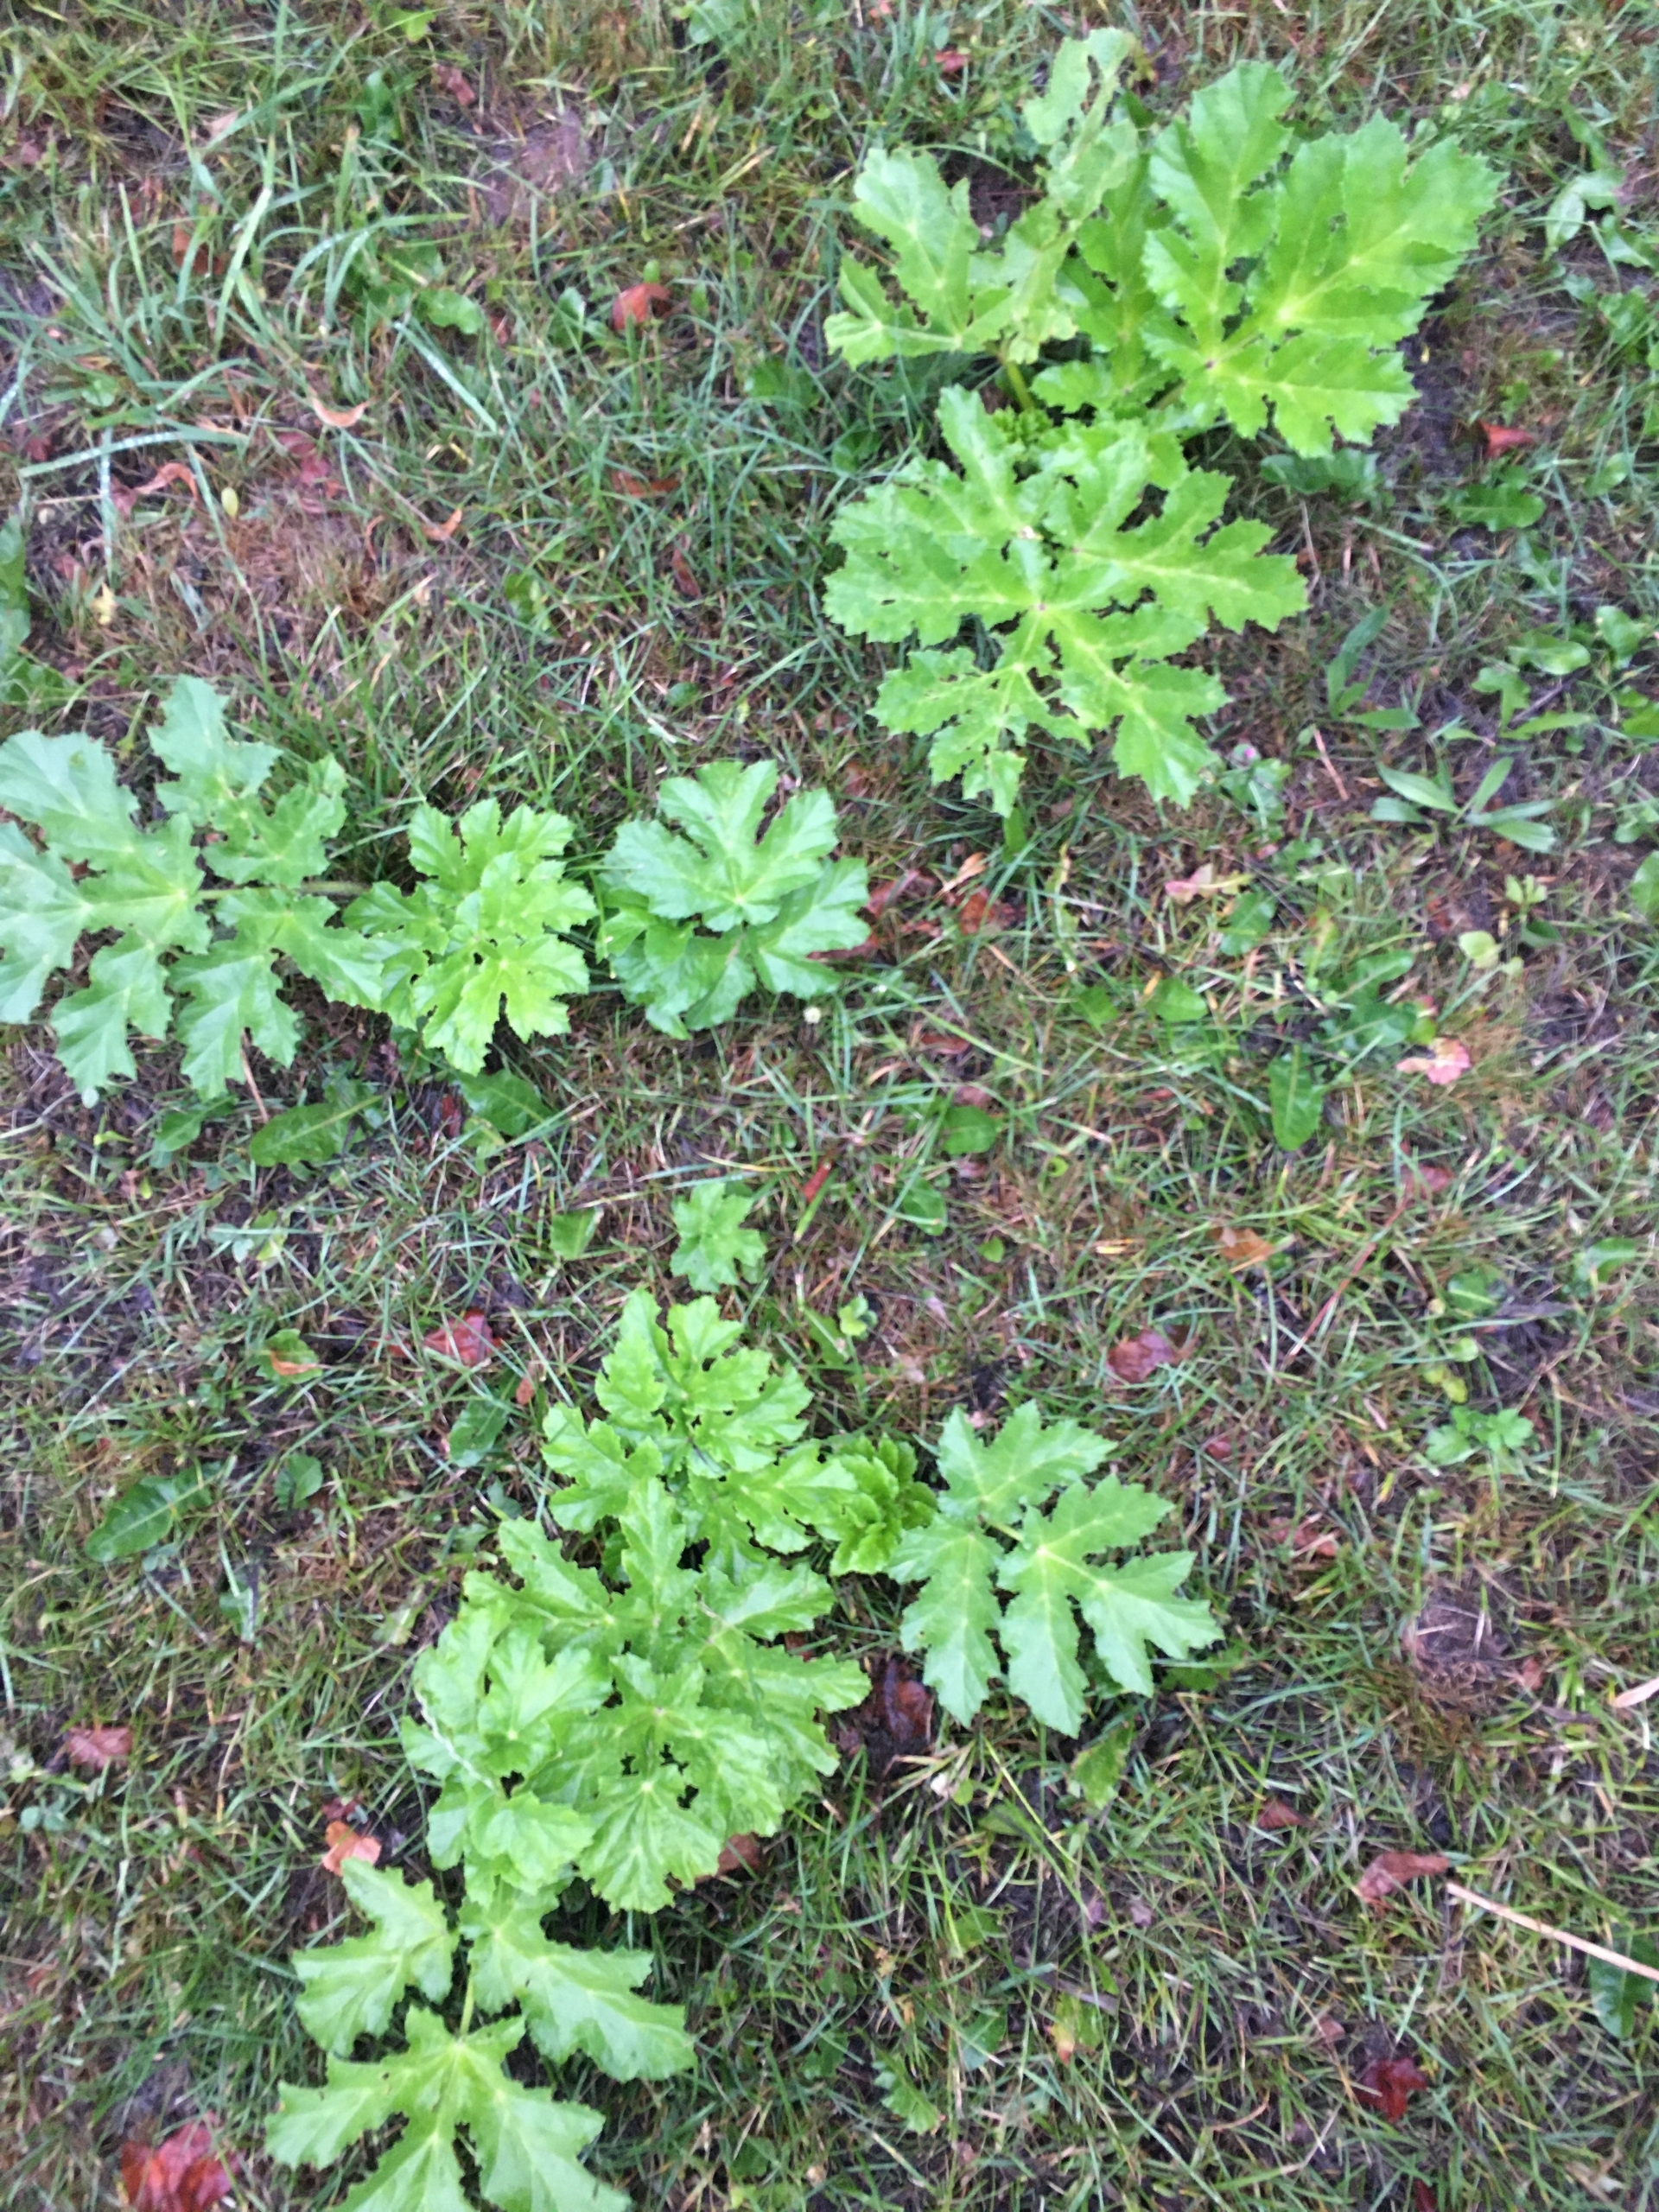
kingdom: Plantae
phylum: Tracheophyta
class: Magnoliopsida
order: Apiales
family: Apiaceae
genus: Heracleum
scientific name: Heracleum mantegazzianum
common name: Kæmpe-bjørneklo
